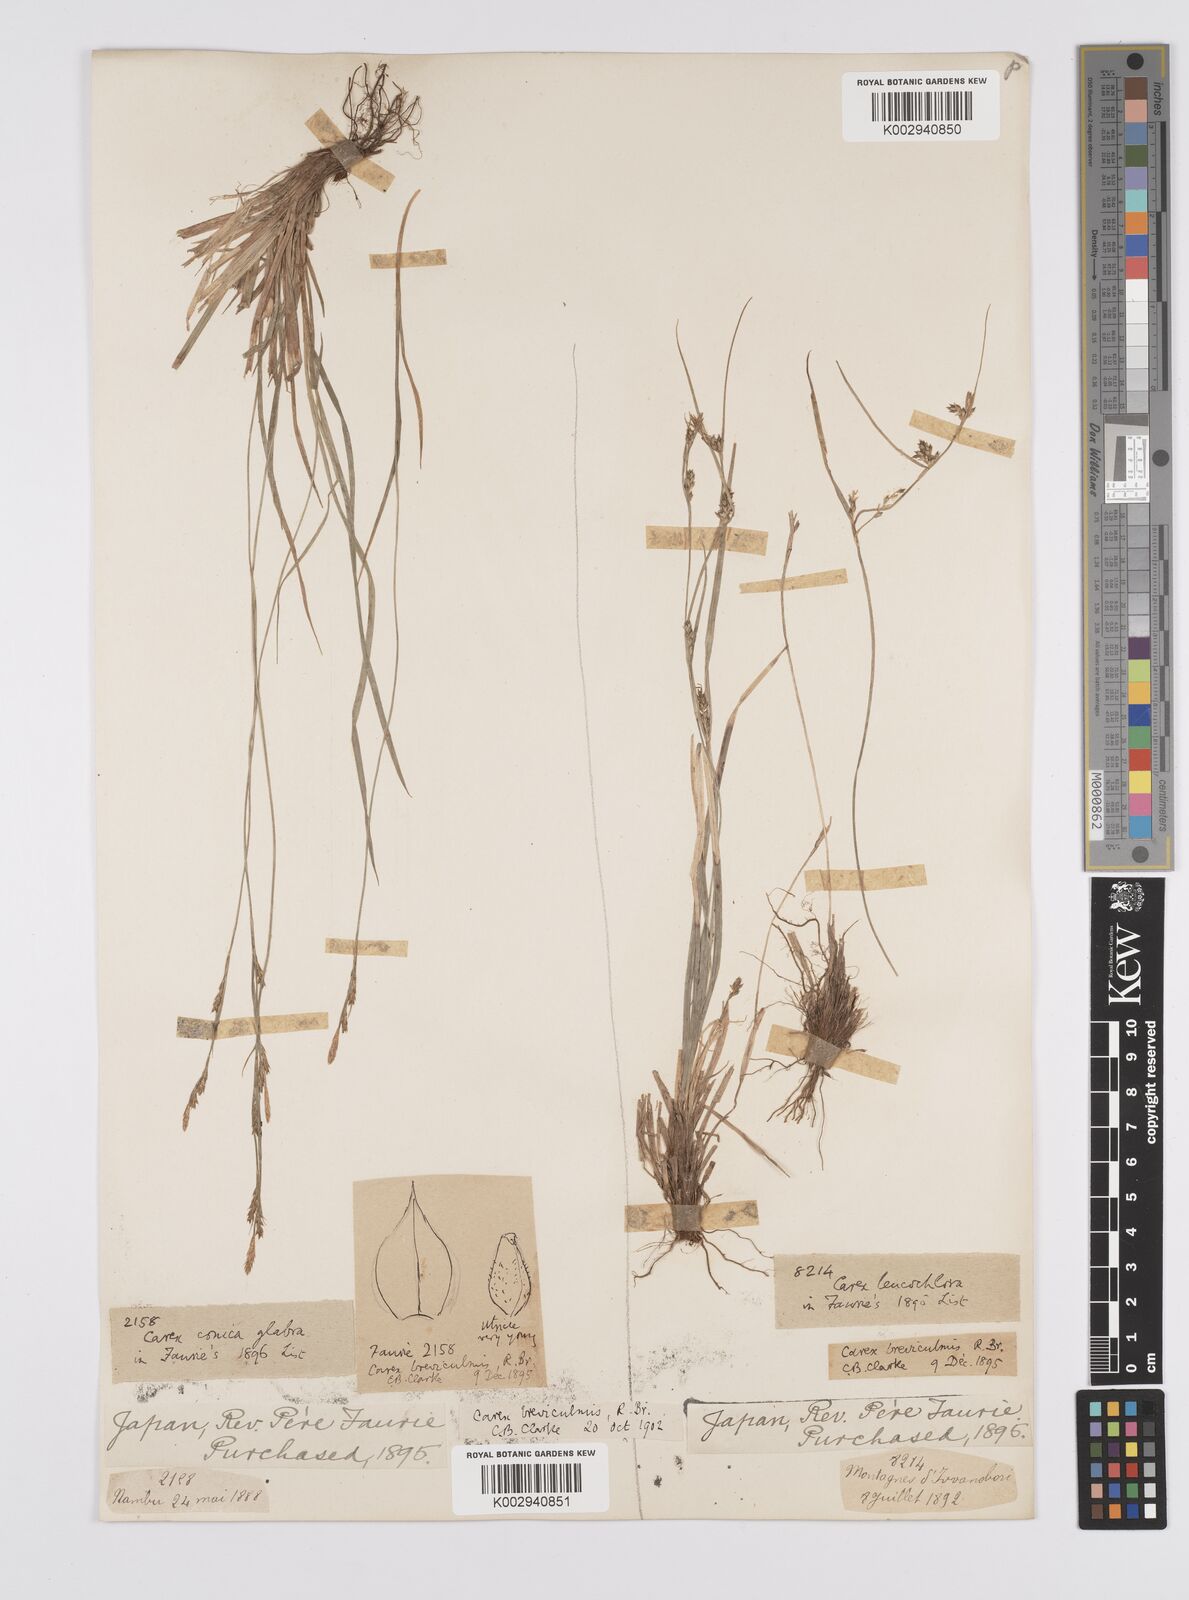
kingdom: Plantae
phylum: Tracheophyta
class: Liliopsida
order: Poales
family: Cyperaceae
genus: Carex
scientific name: Carex breviculmis
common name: Asian shortstem sedge
